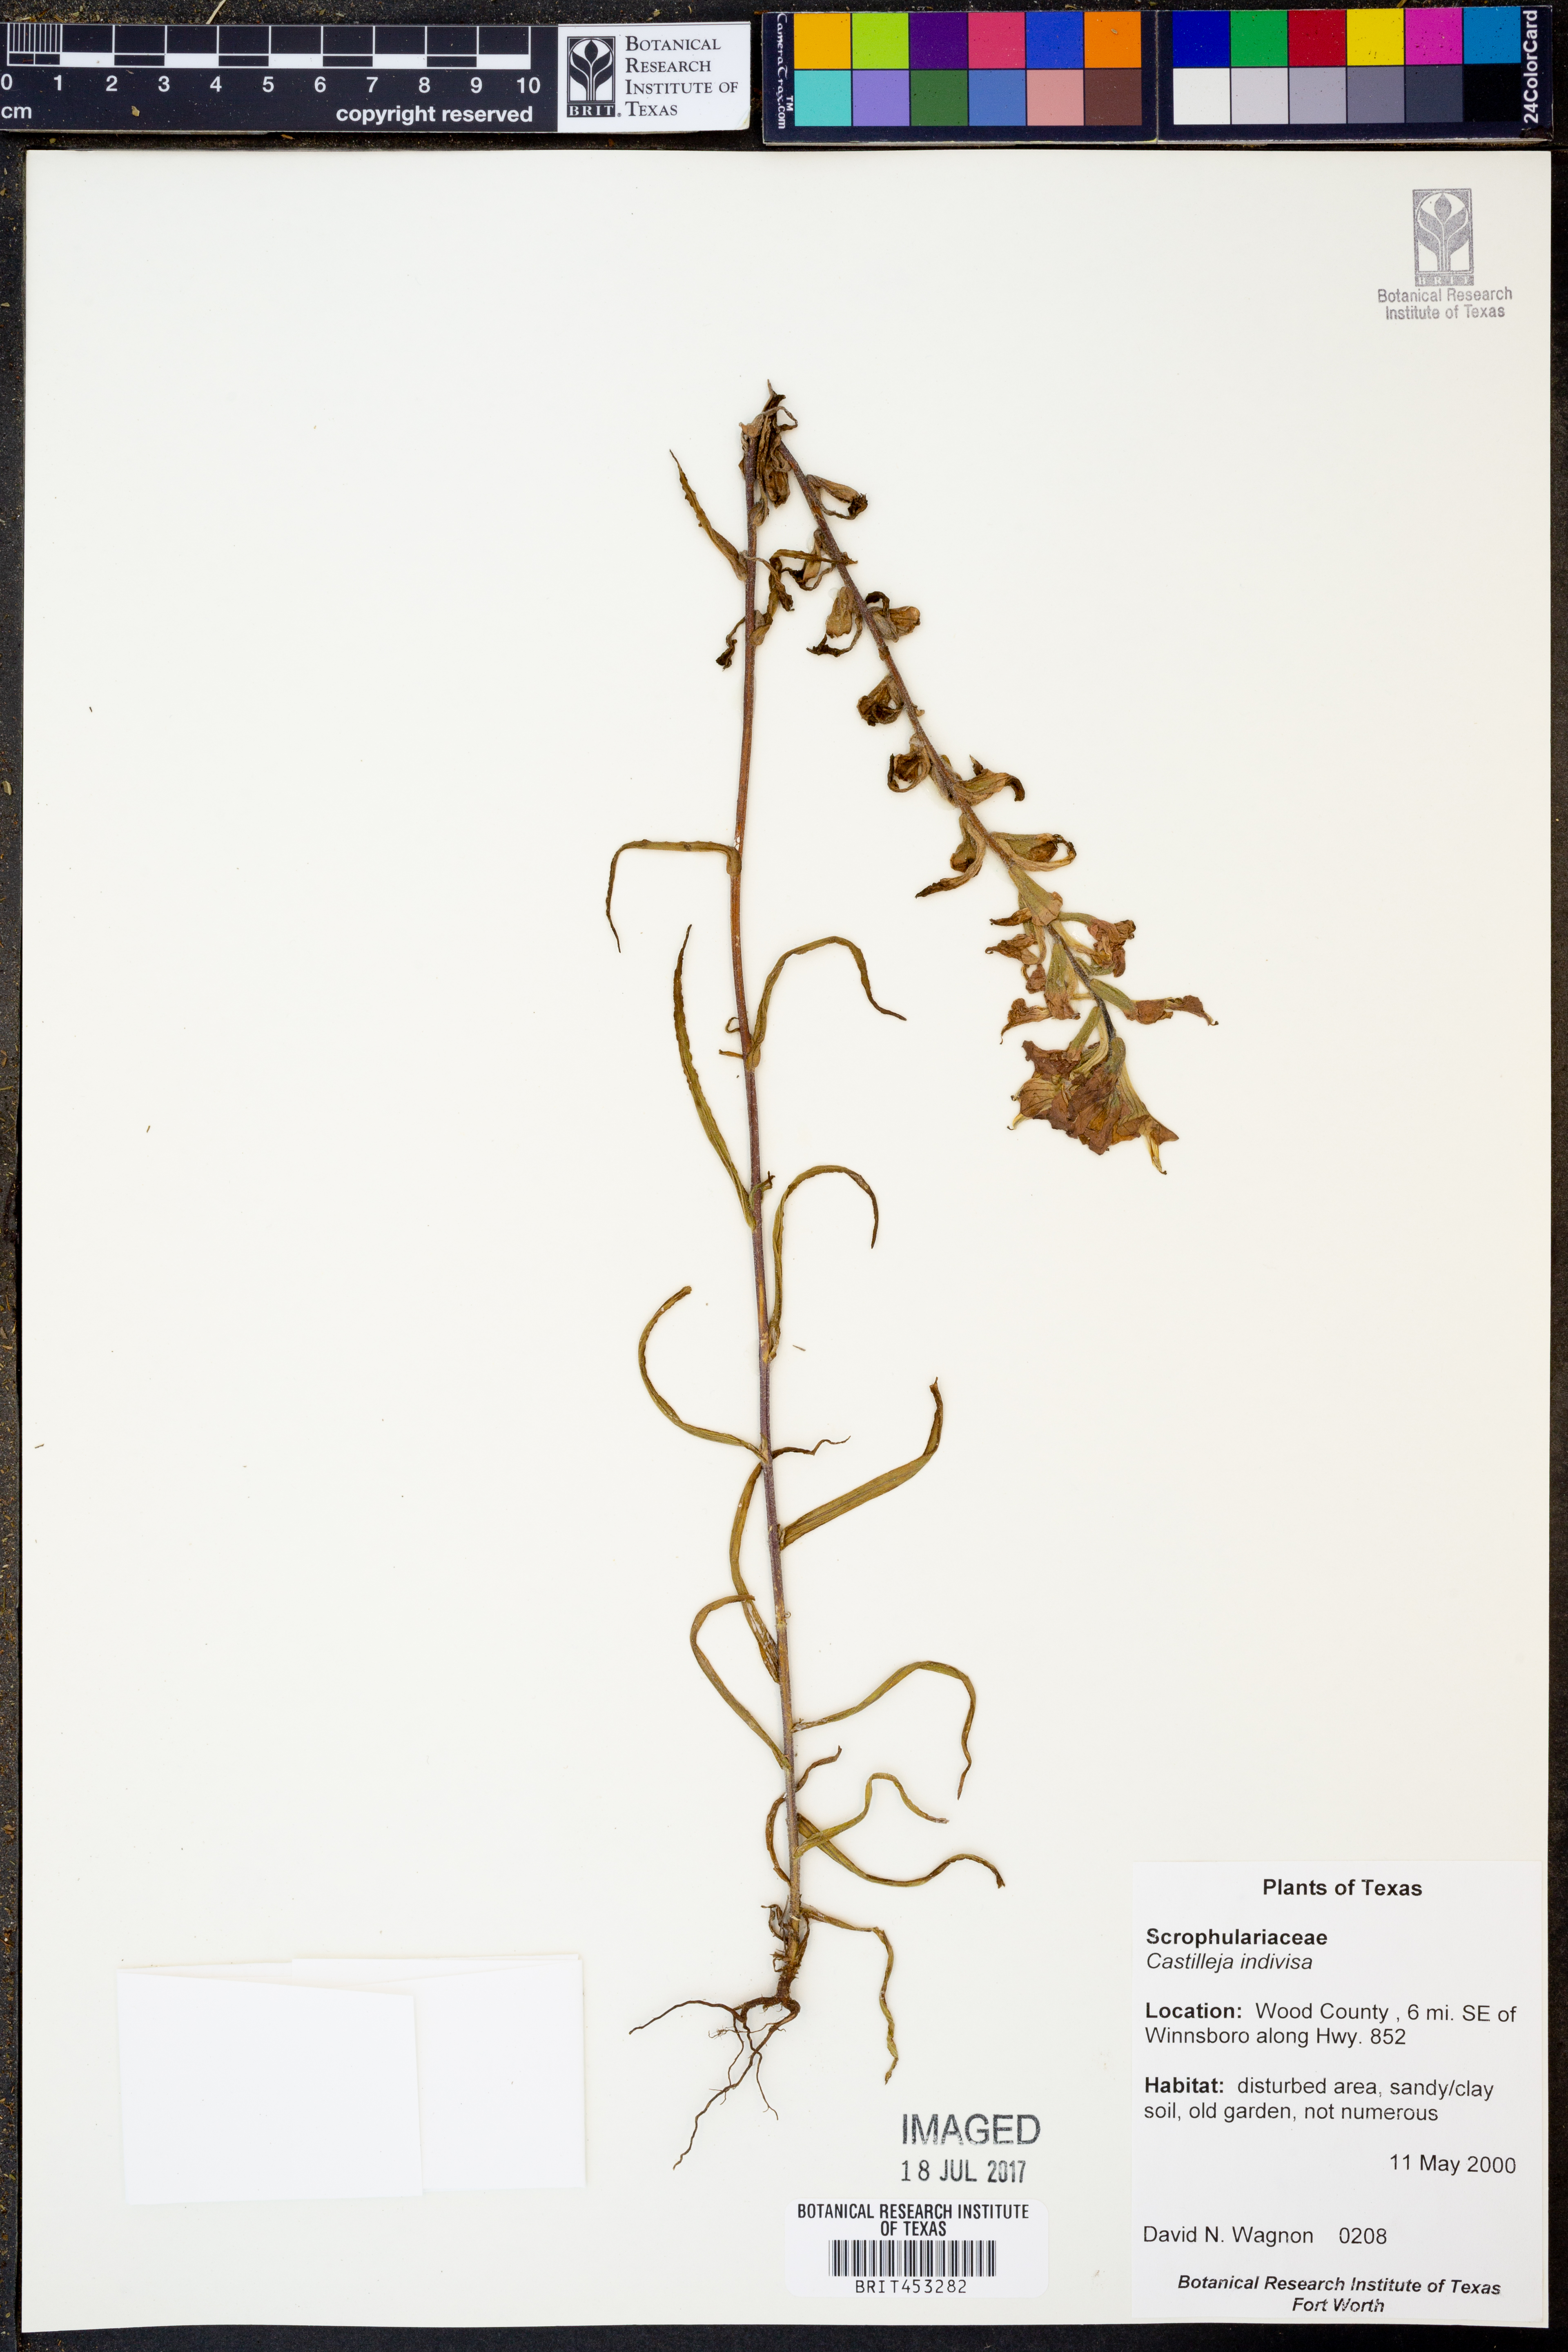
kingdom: Plantae
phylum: Tracheophyta
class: Magnoliopsida
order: Lamiales
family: Orobanchaceae
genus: Castilleja
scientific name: Castilleja indivisa
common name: Texas paintbrush
